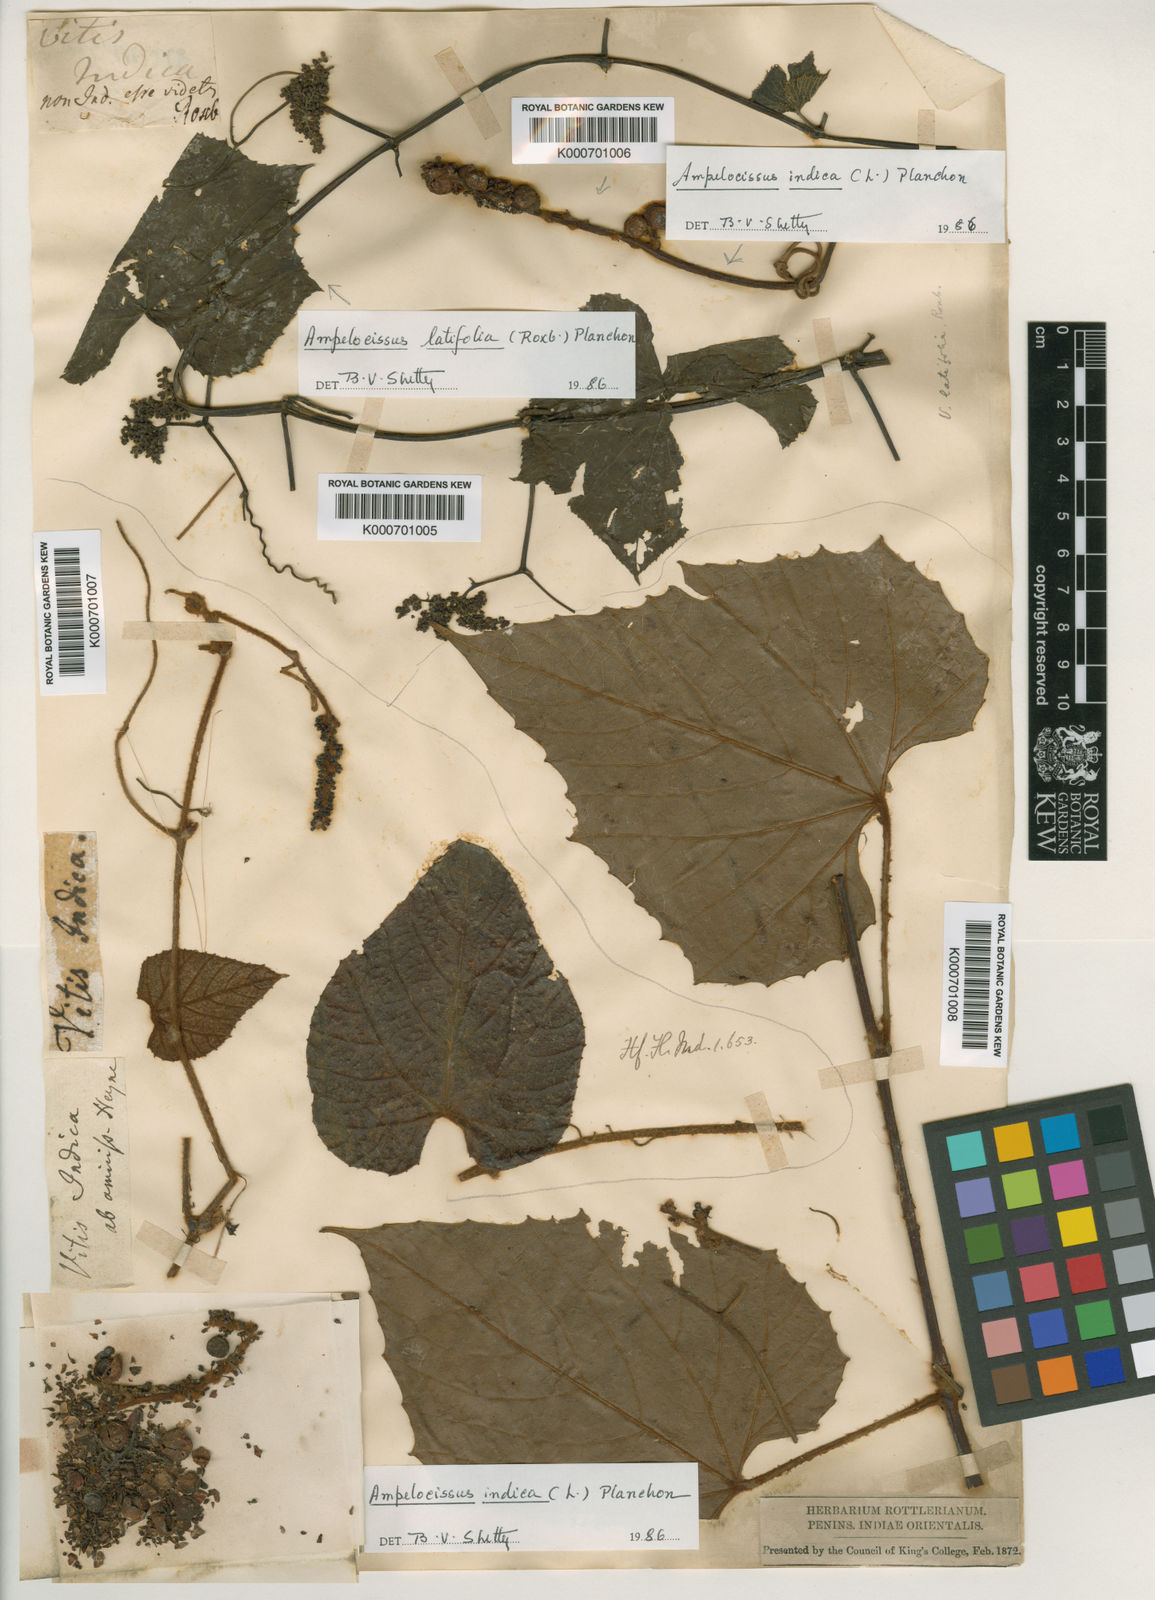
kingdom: Plantae
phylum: Tracheophyta
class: Magnoliopsida
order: Vitales
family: Vitaceae
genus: Ampelocissus
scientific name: Ampelocissus indica
